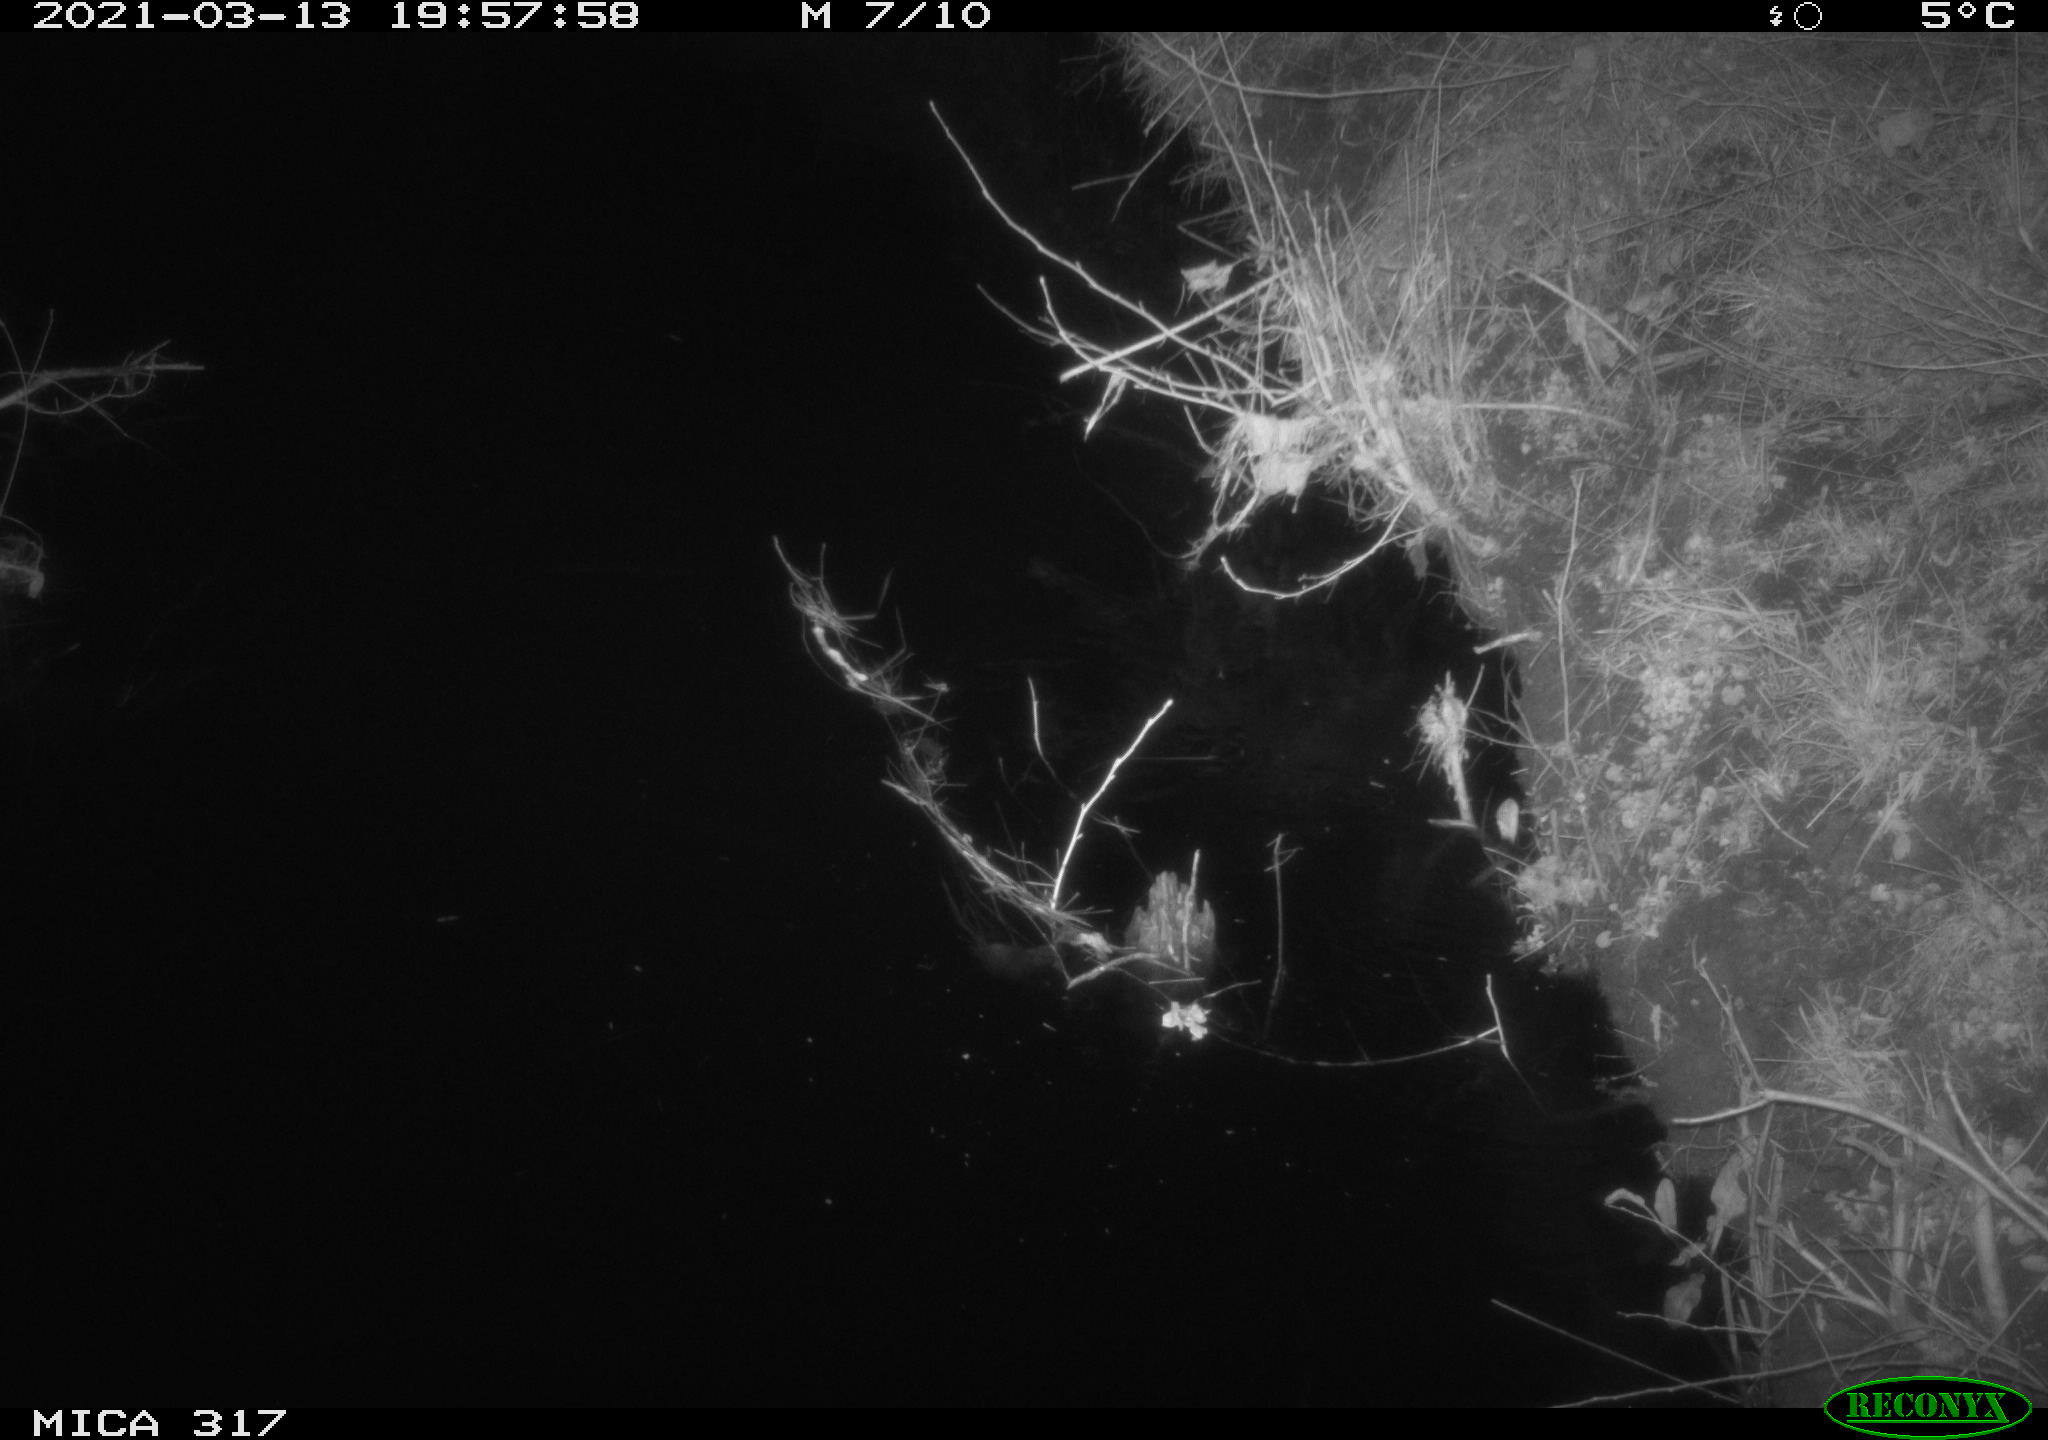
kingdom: Animalia
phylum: Chordata
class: Mammalia
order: Artiodactyla
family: Cervidae
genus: Capreolus
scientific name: Capreolus capreolus
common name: Western roe deer
